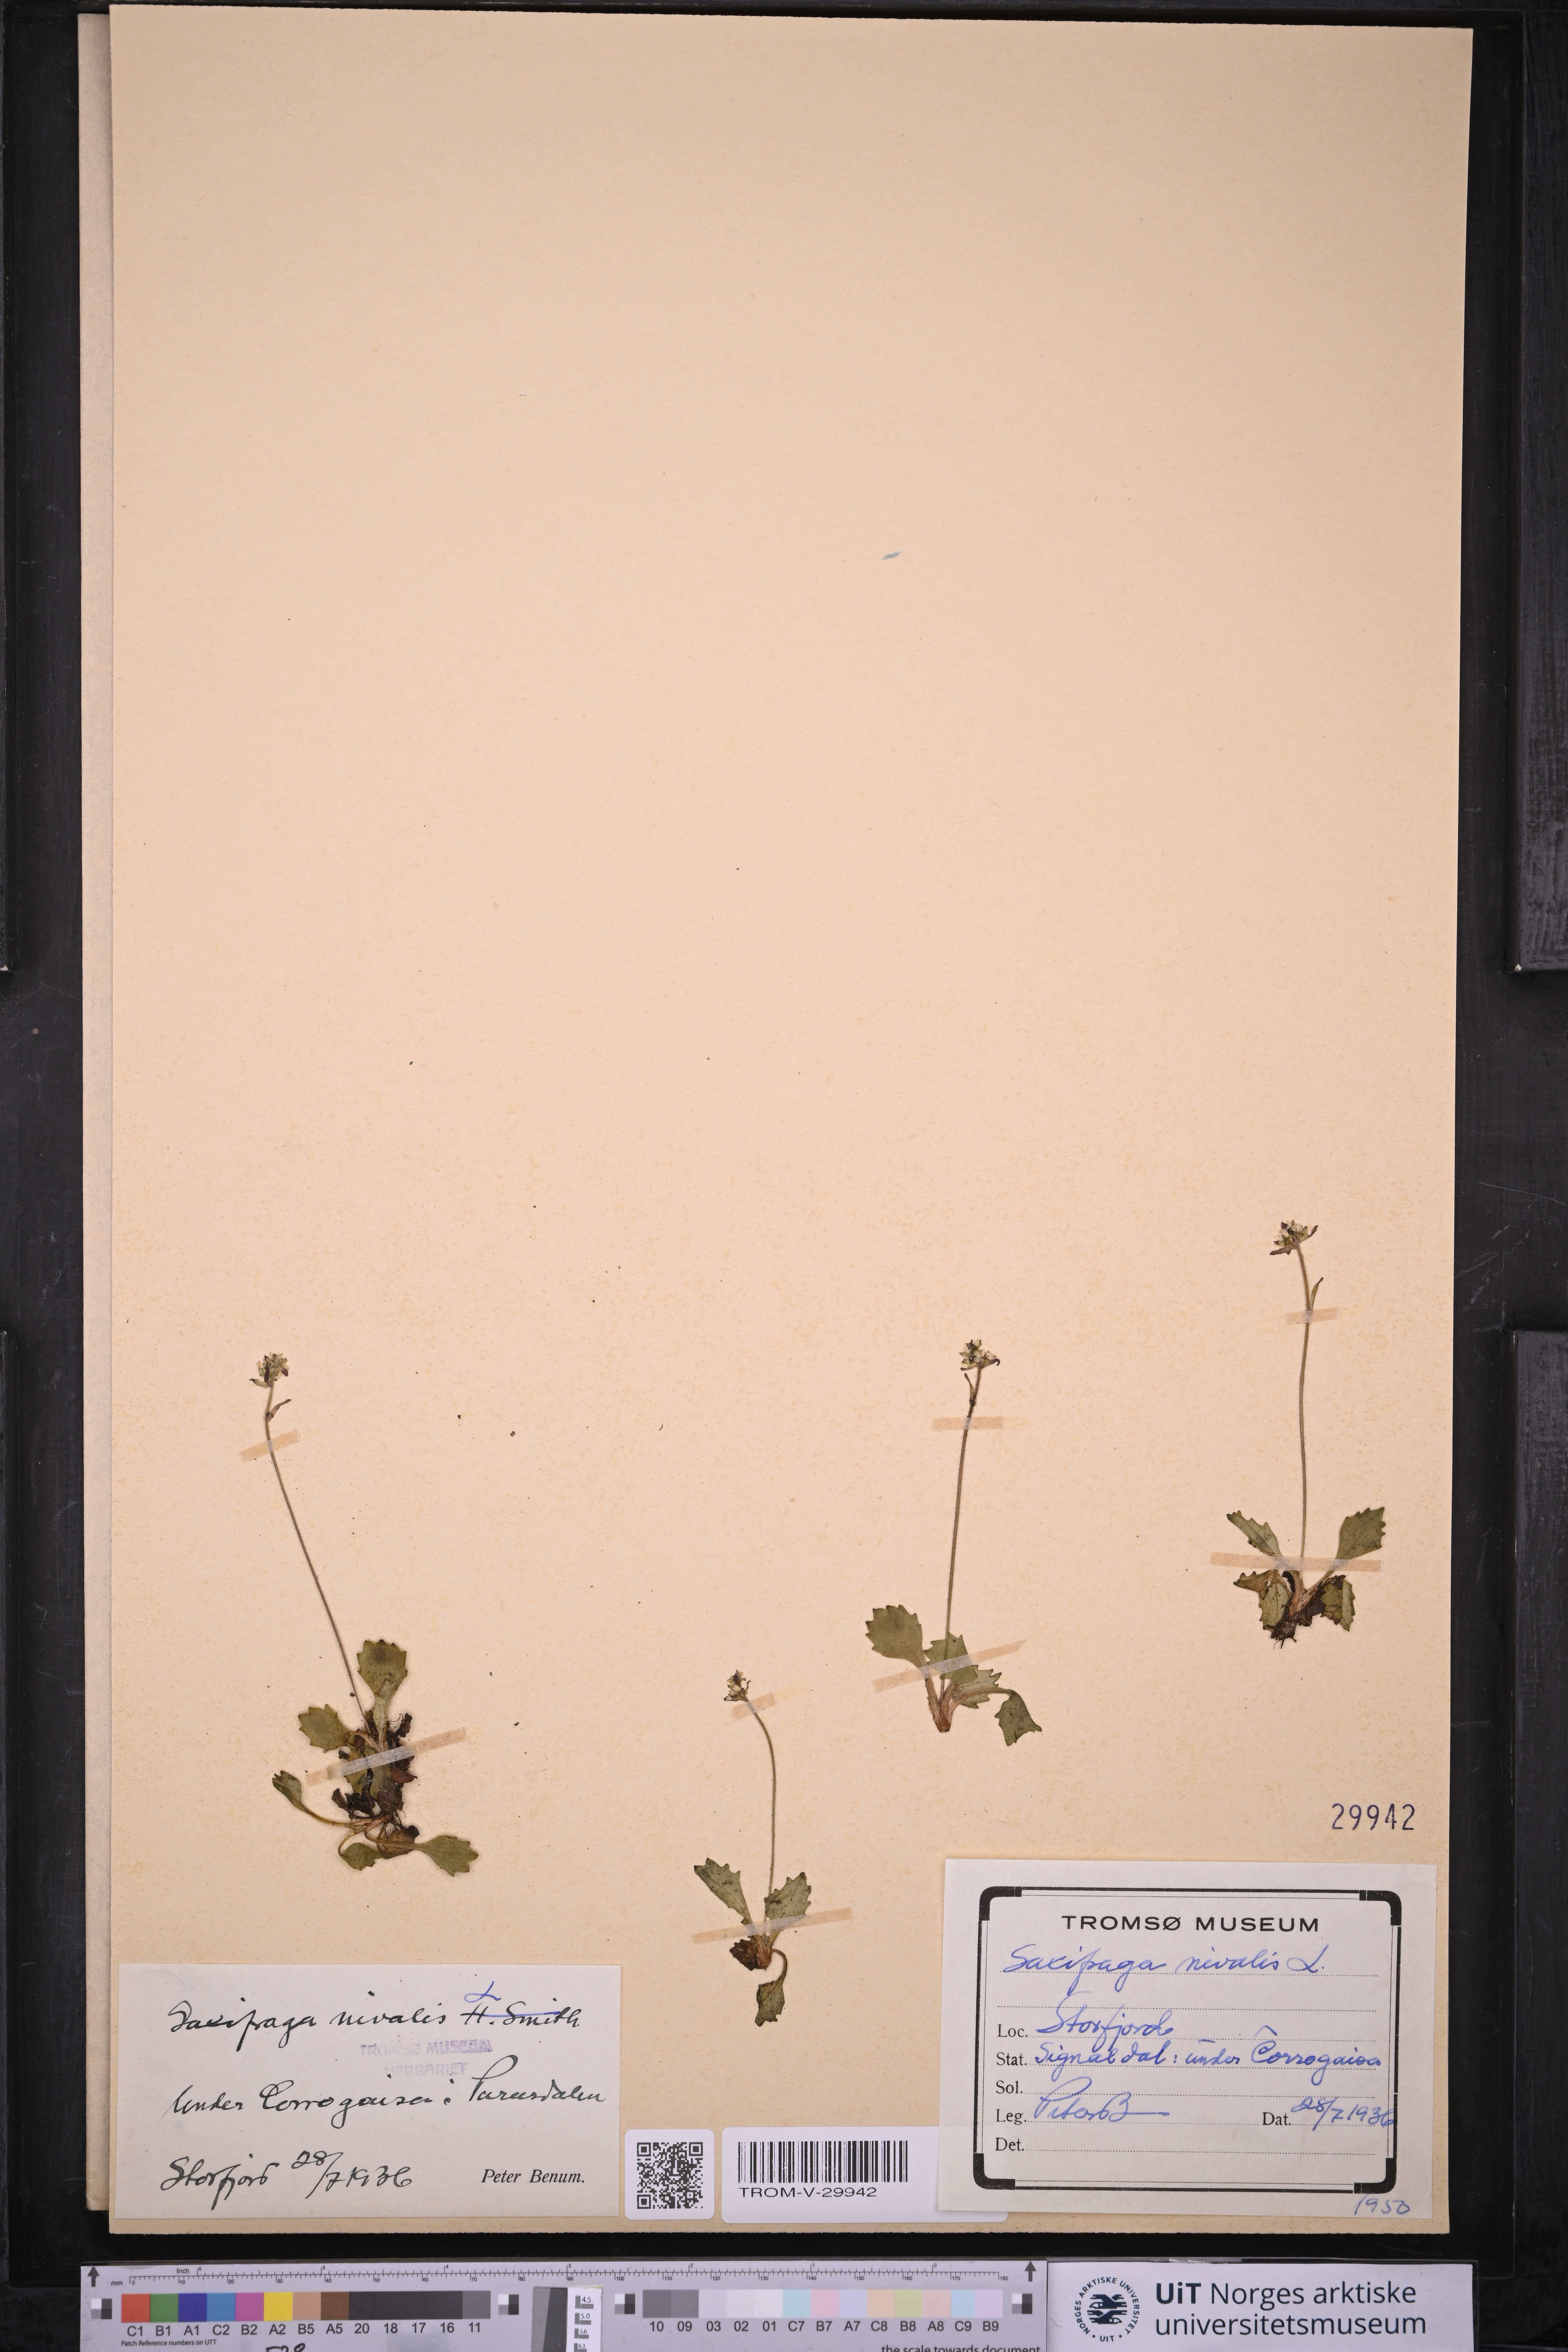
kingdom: Plantae
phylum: Tracheophyta
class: Magnoliopsida
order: Saxifragales
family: Saxifragaceae
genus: Micranthes
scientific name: Micranthes nivalis
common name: Alpine saxifrage
